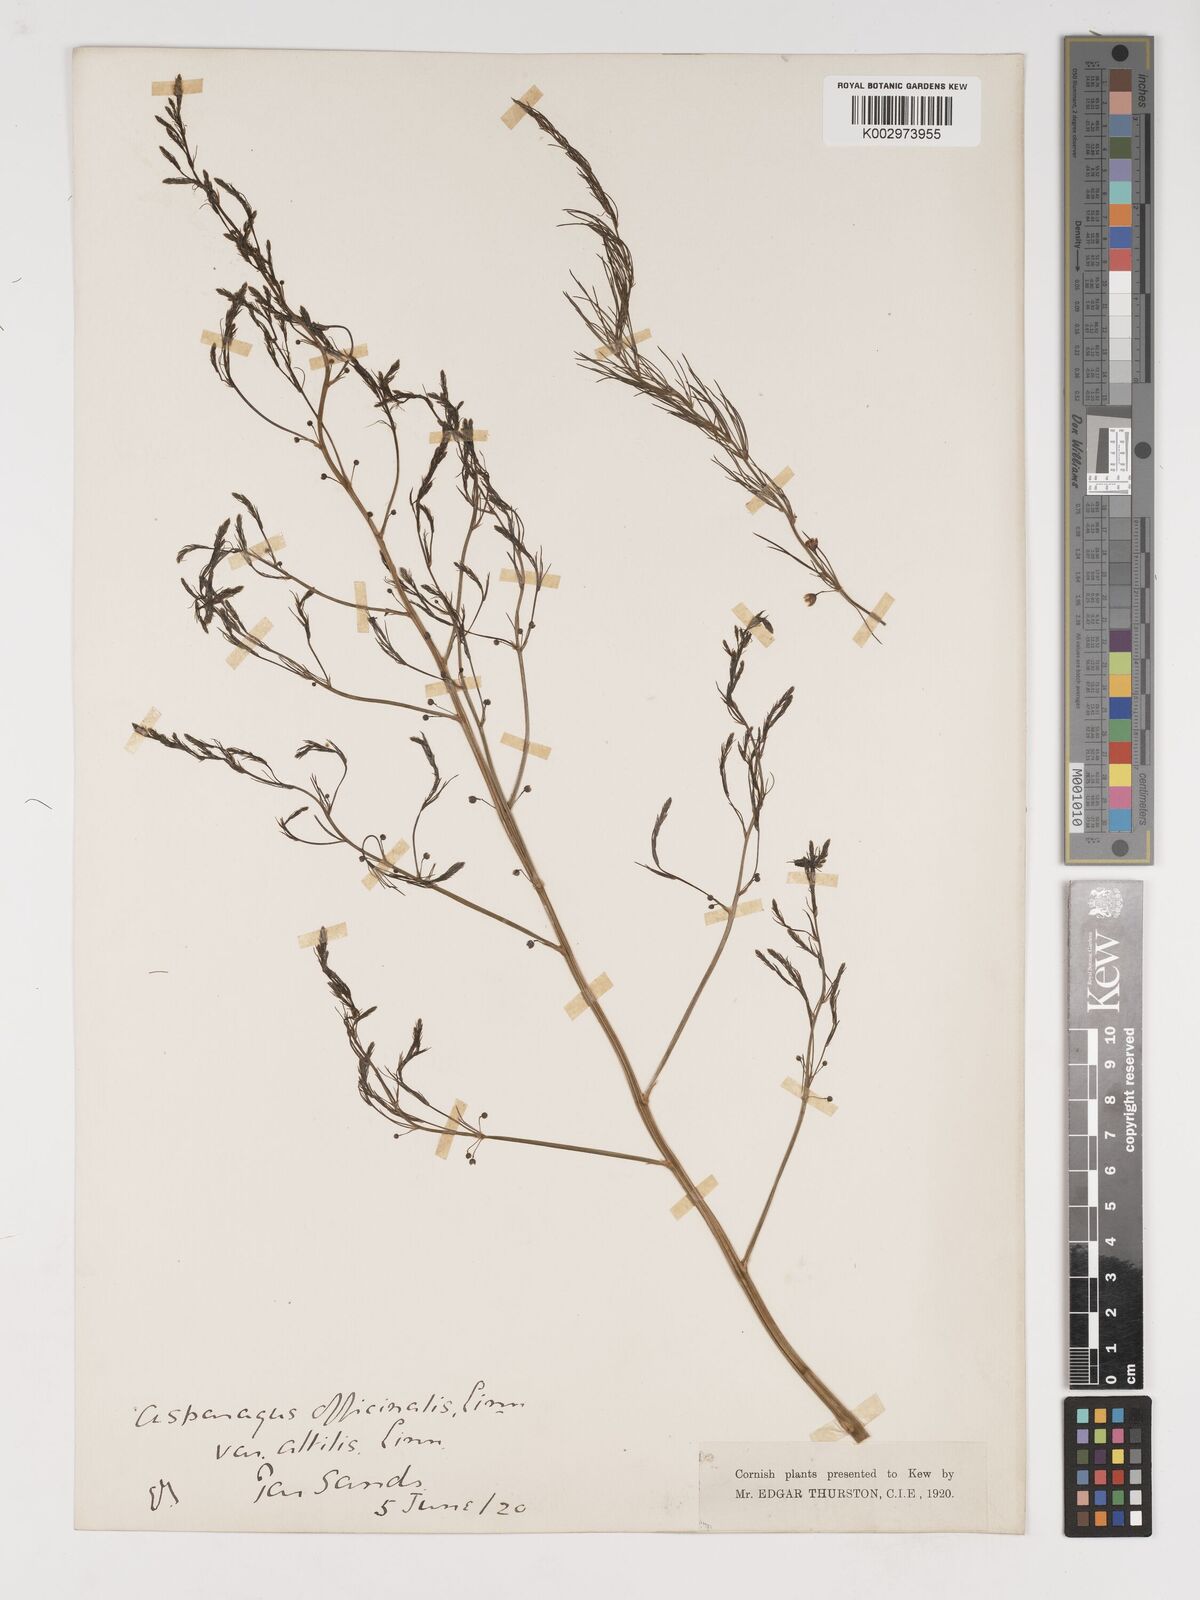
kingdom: Plantae
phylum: Tracheophyta
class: Liliopsida
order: Asparagales
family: Asparagaceae
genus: Asparagus
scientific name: Asparagus officinalis
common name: Garden asparagus
